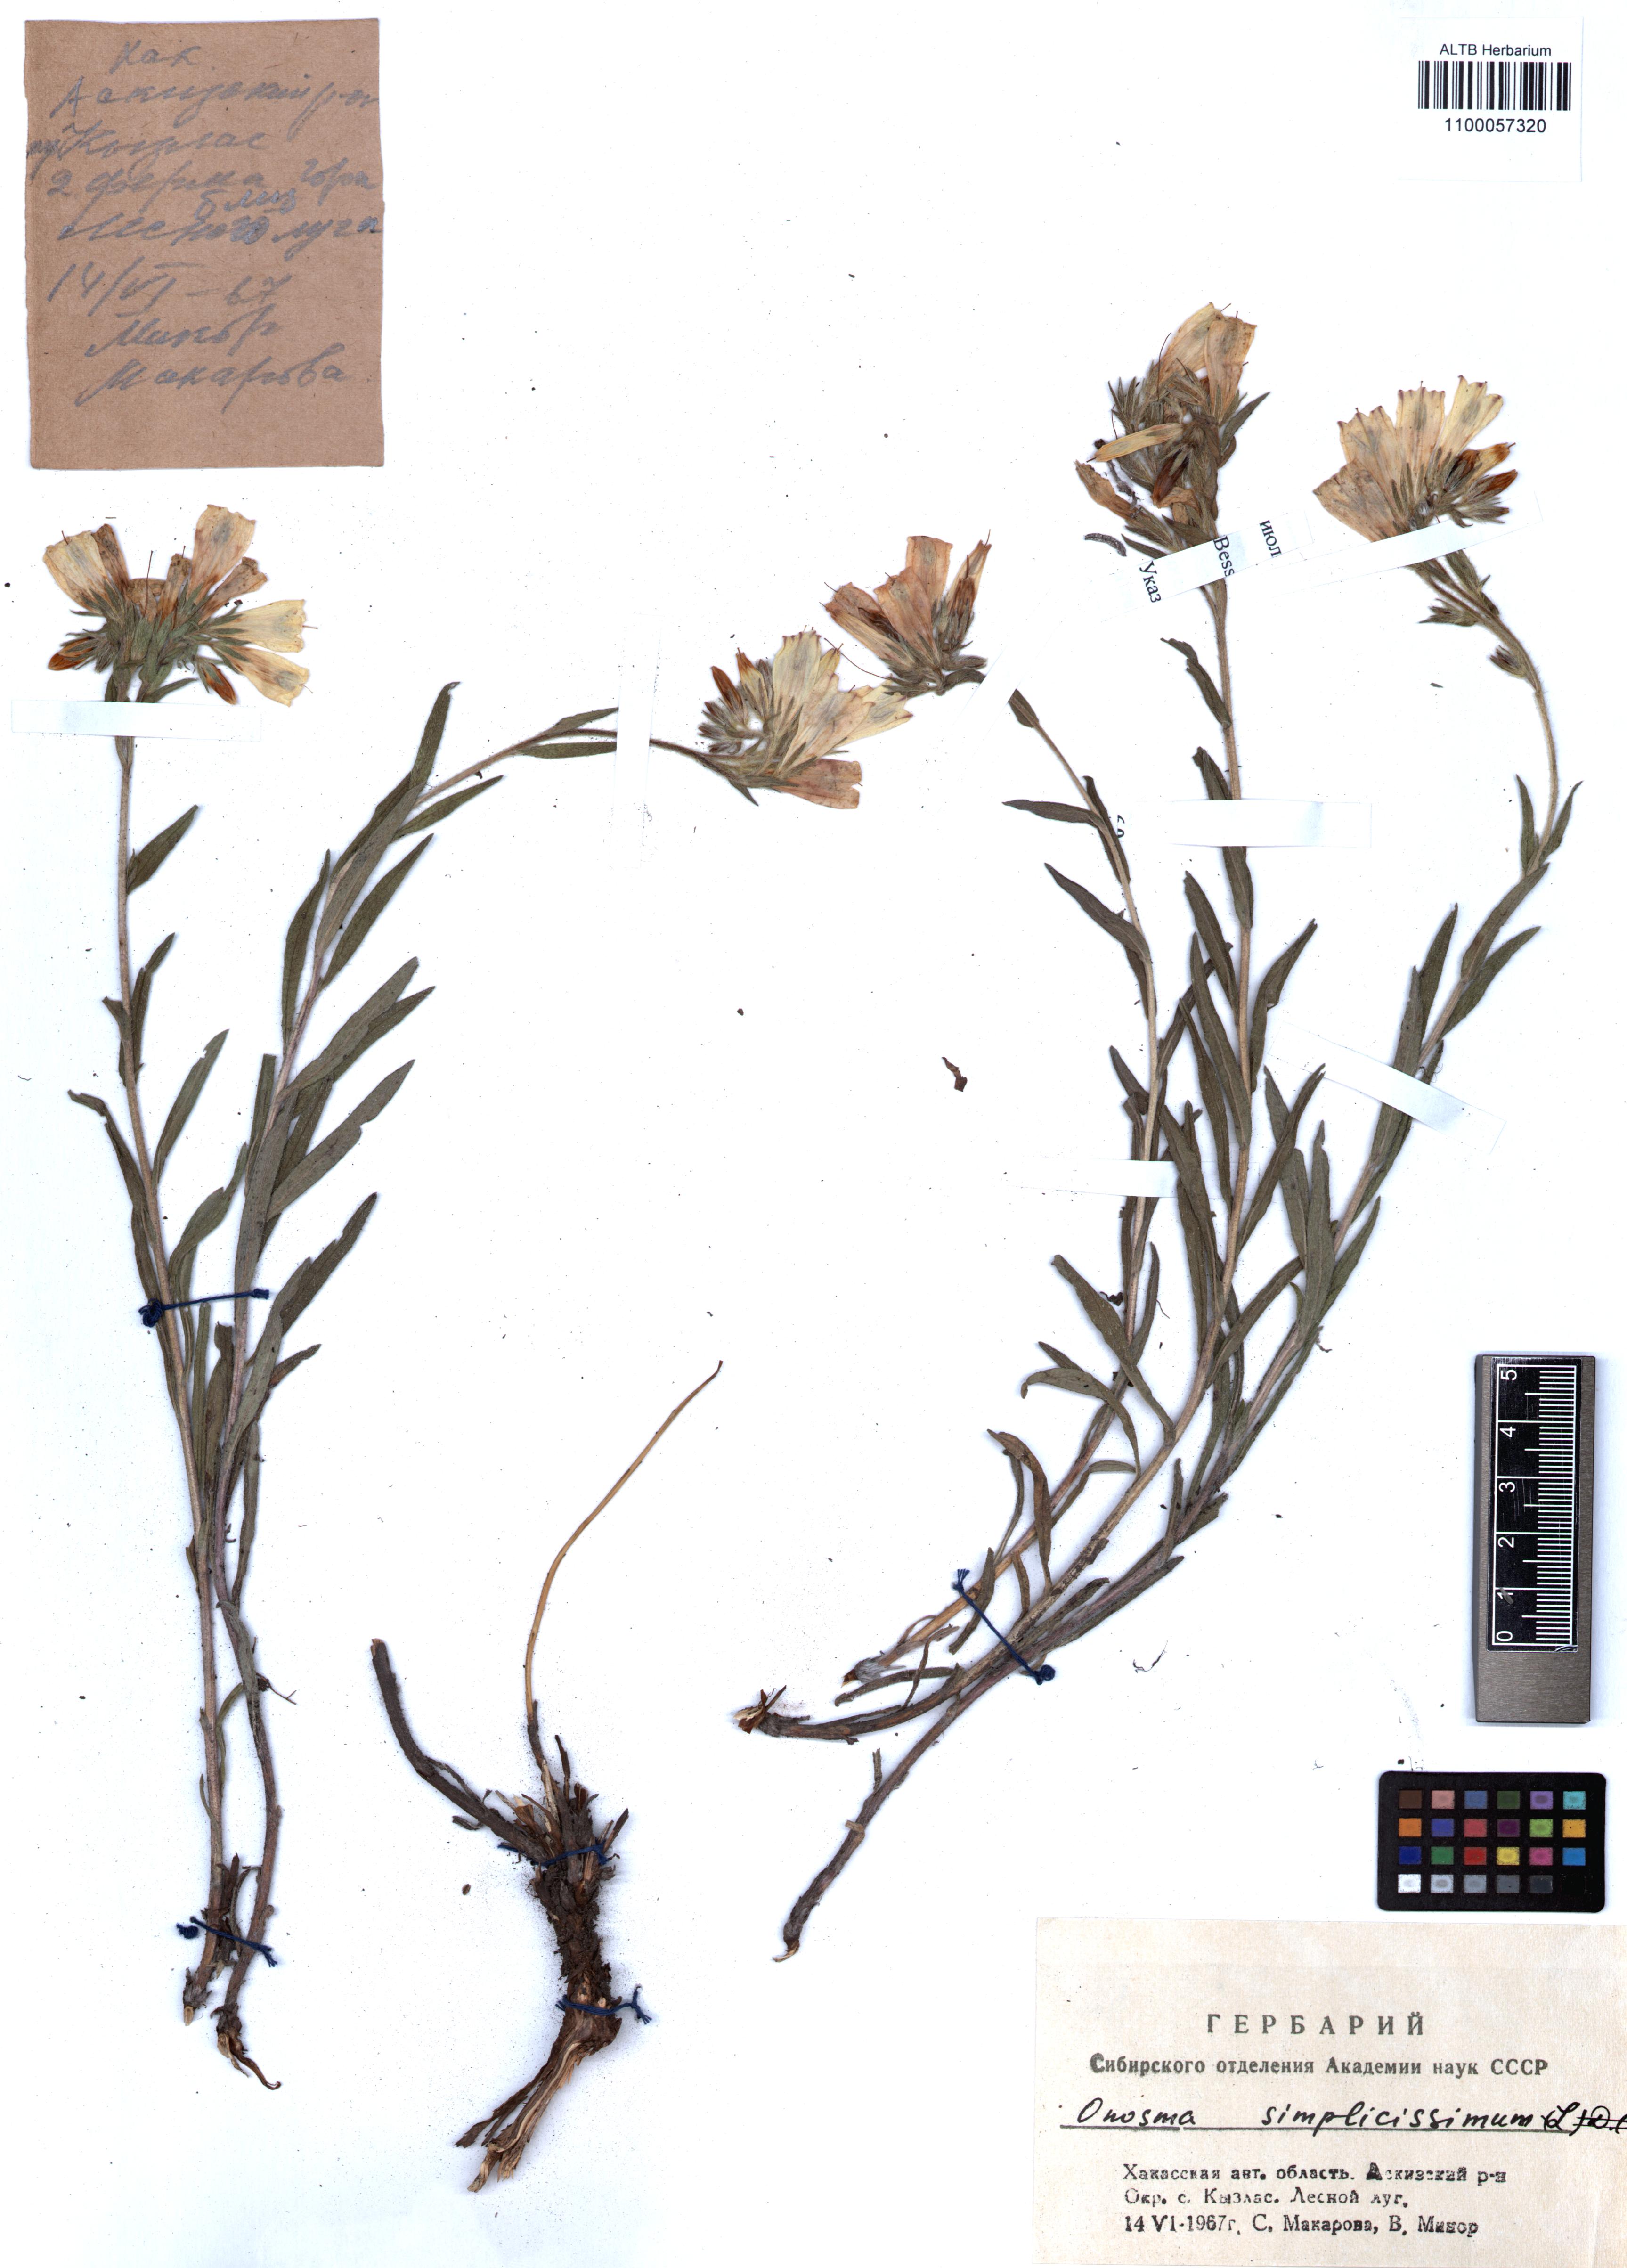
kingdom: Plantae
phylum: Tracheophyta
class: Magnoliopsida
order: Boraginales
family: Boraginaceae
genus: Onosma
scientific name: Onosma simplicissima
